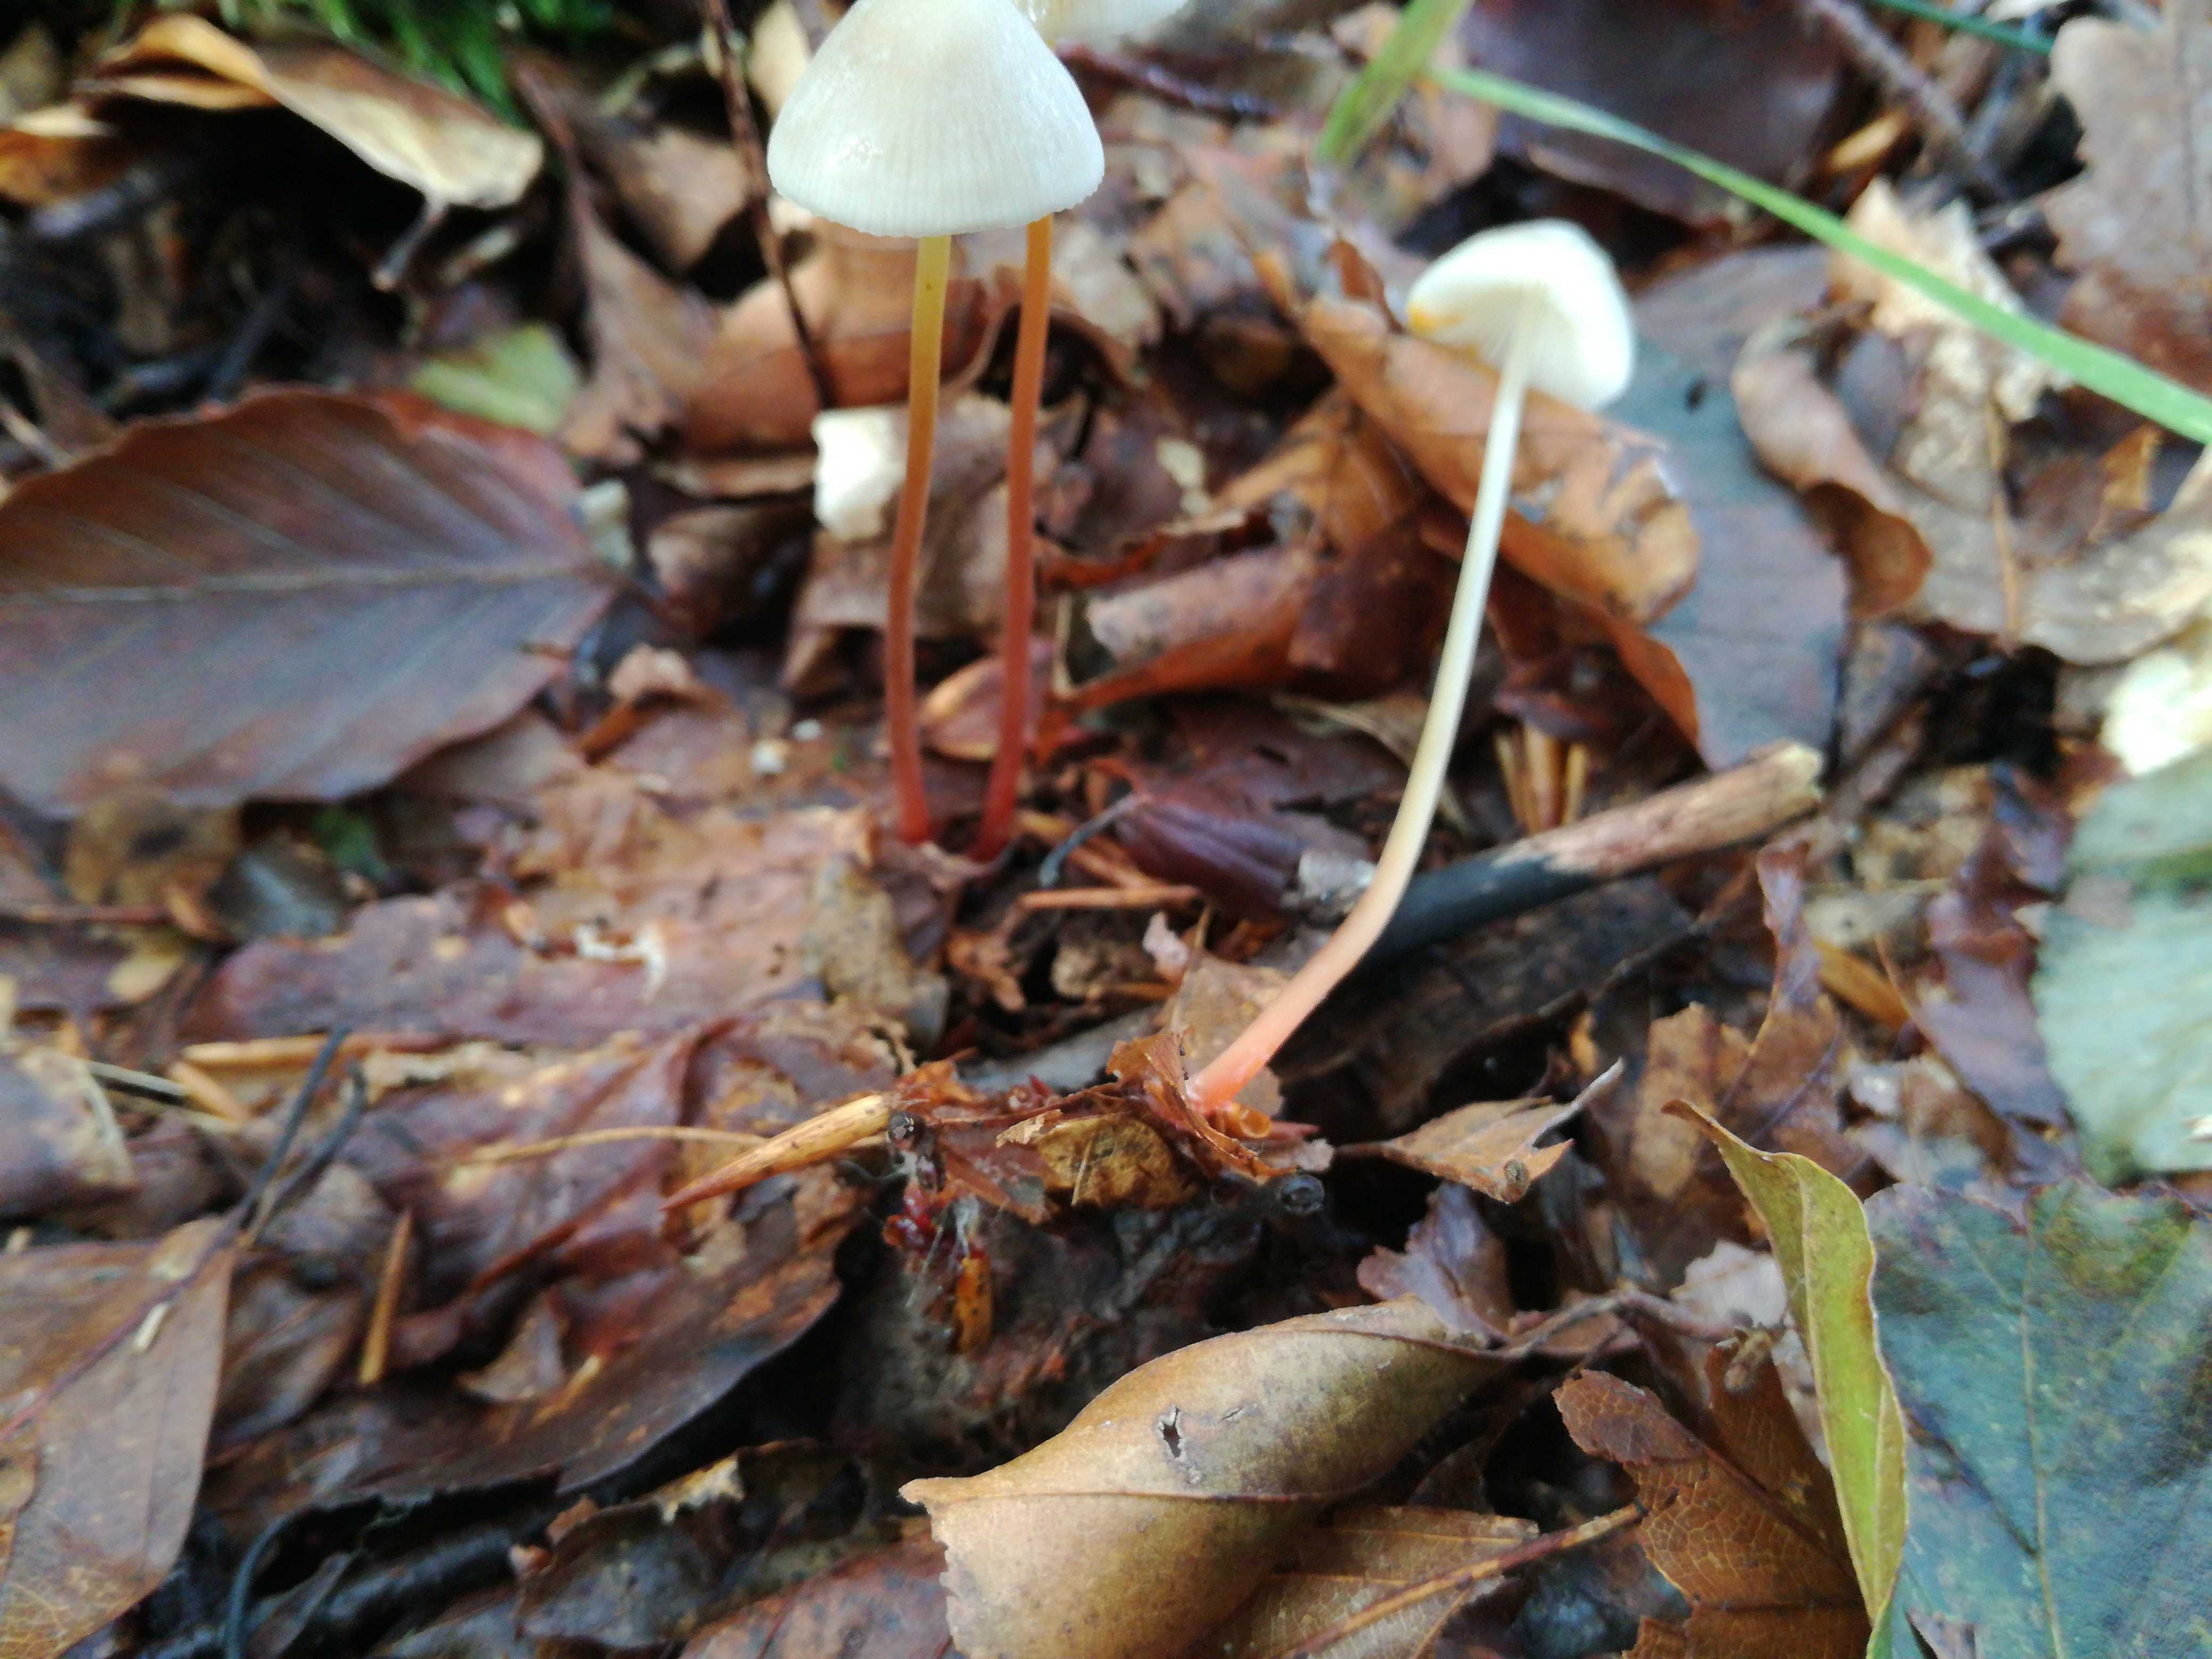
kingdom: Fungi
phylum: Basidiomycota
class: Agaricomycetes
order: Agaricales
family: Mycenaceae
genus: Mycena
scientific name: Mycena crocata
